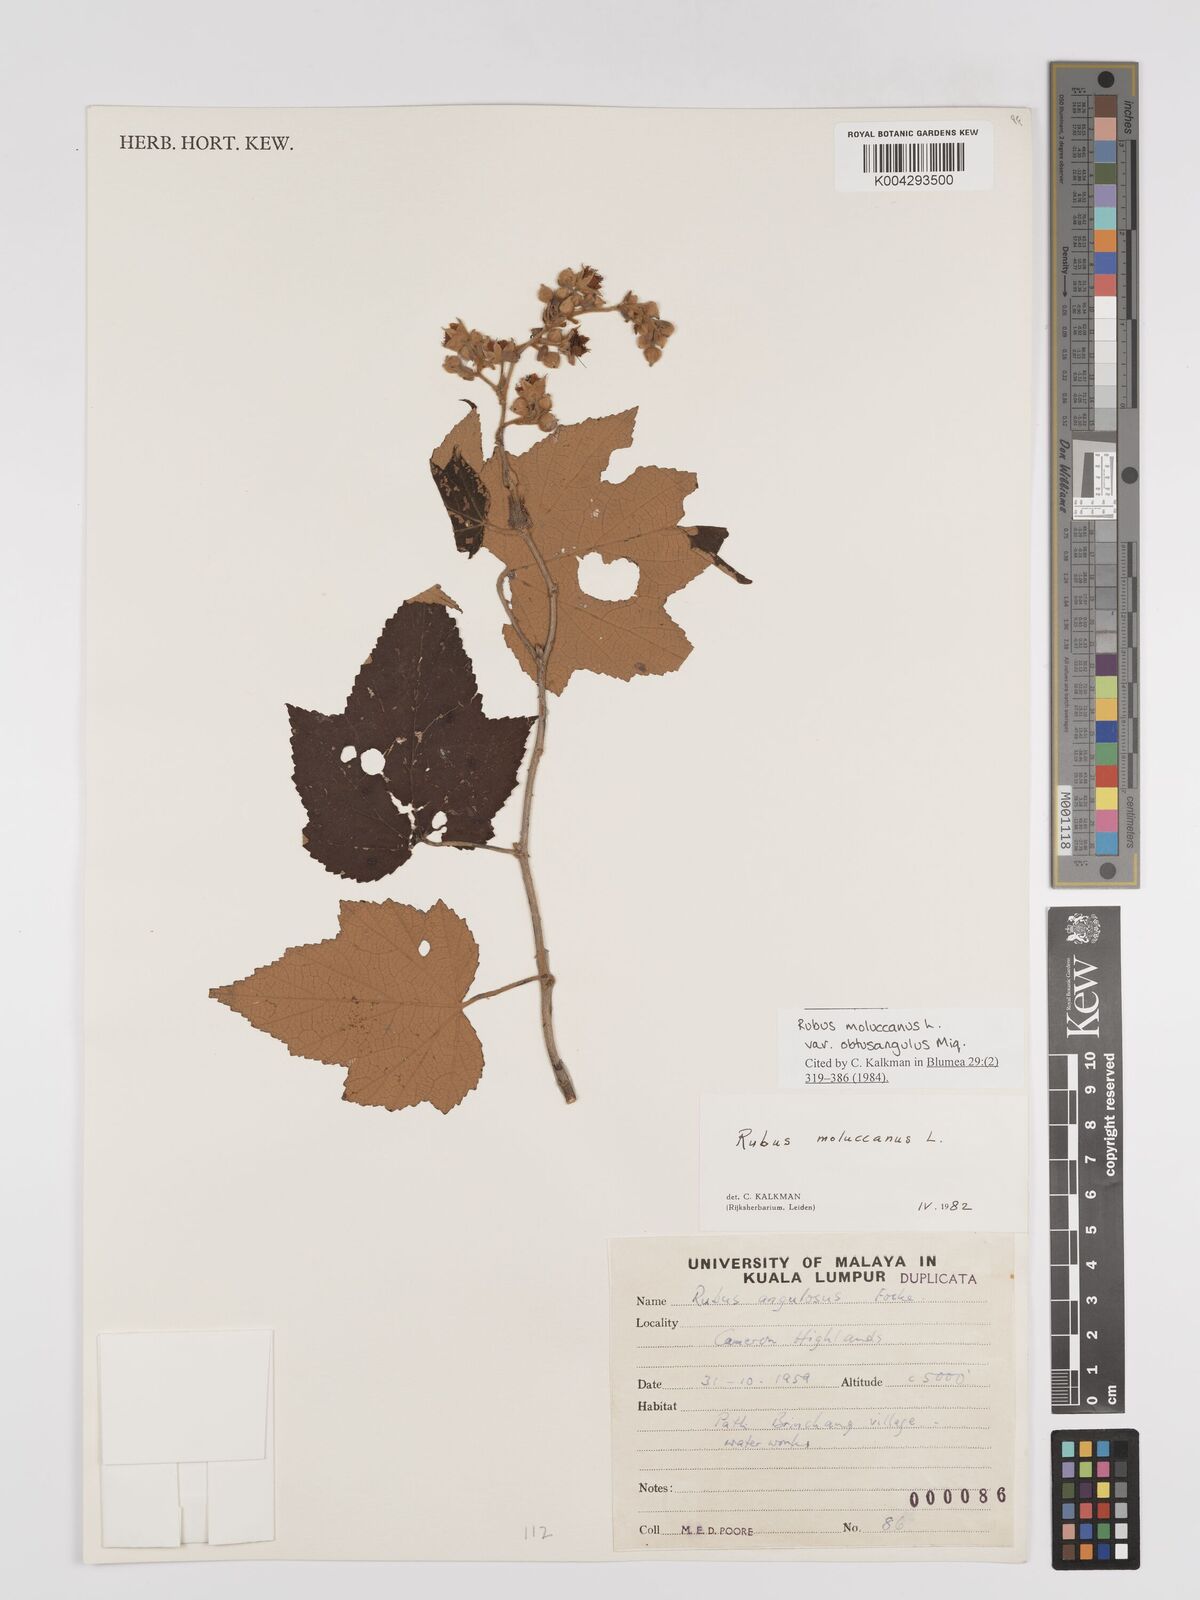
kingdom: Plantae
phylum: Tracheophyta
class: Magnoliopsida
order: Rosales
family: Rosaceae
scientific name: Rosaceae
